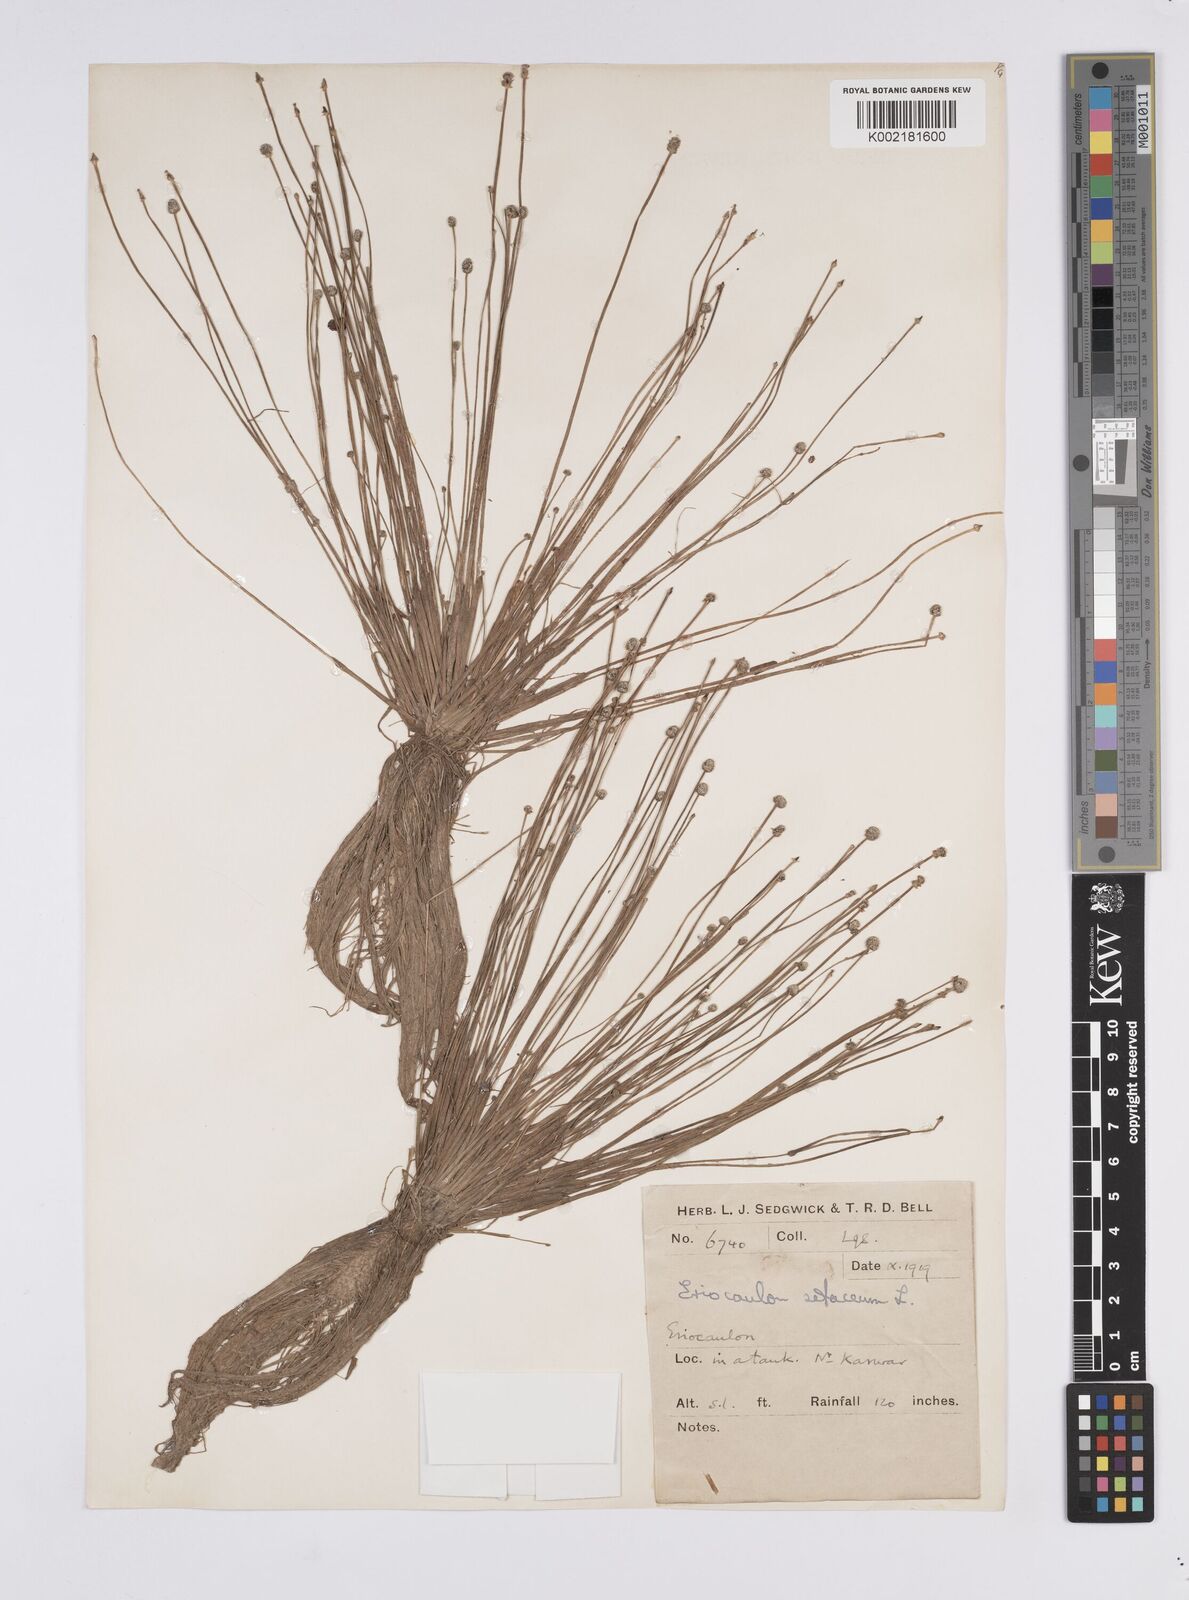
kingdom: Plantae
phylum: Tracheophyta
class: Liliopsida
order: Poales
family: Eriocaulaceae
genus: Eriocaulon
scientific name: Eriocaulon setaceum
